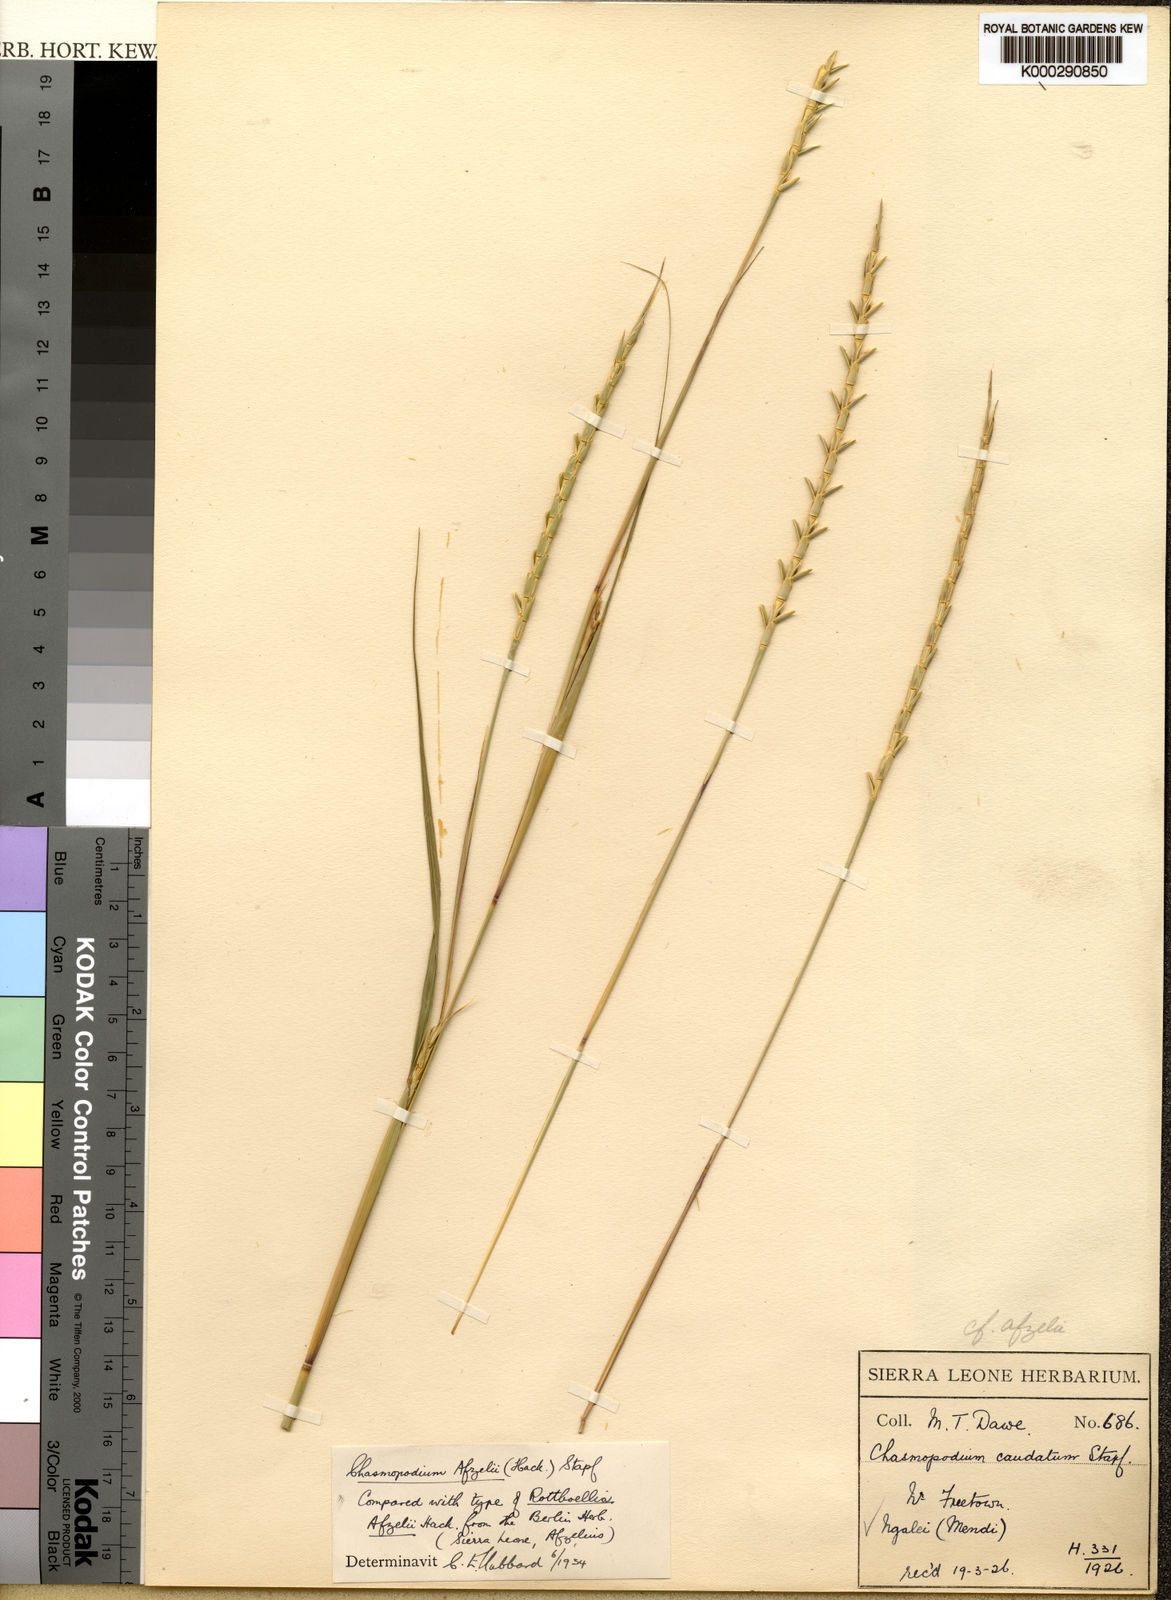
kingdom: Plantae
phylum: Tracheophyta
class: Liliopsida
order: Poales
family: Poaceae
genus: Chasmopodium
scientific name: Chasmopodium afzelii
